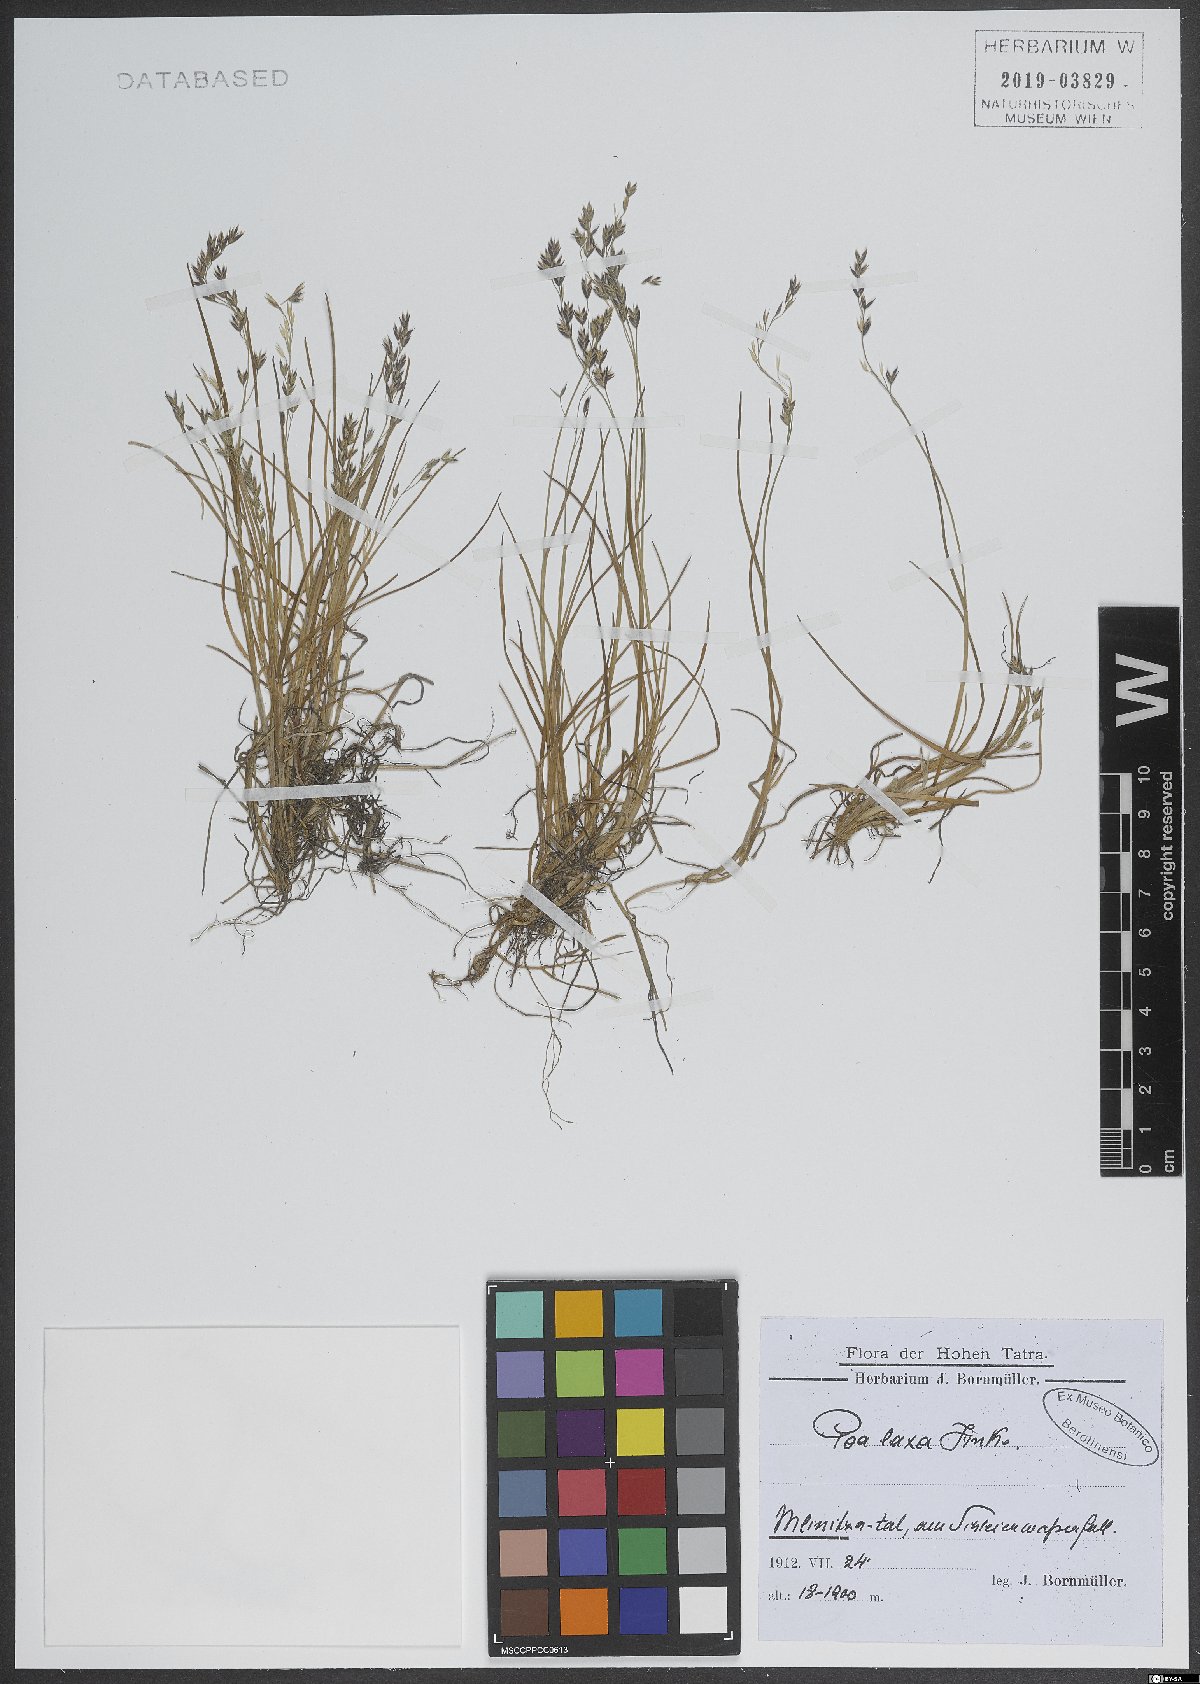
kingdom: Plantae
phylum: Tracheophyta
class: Liliopsida
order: Poales
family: Poaceae
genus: Poa
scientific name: Poa laxa
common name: Lax bluegrass
